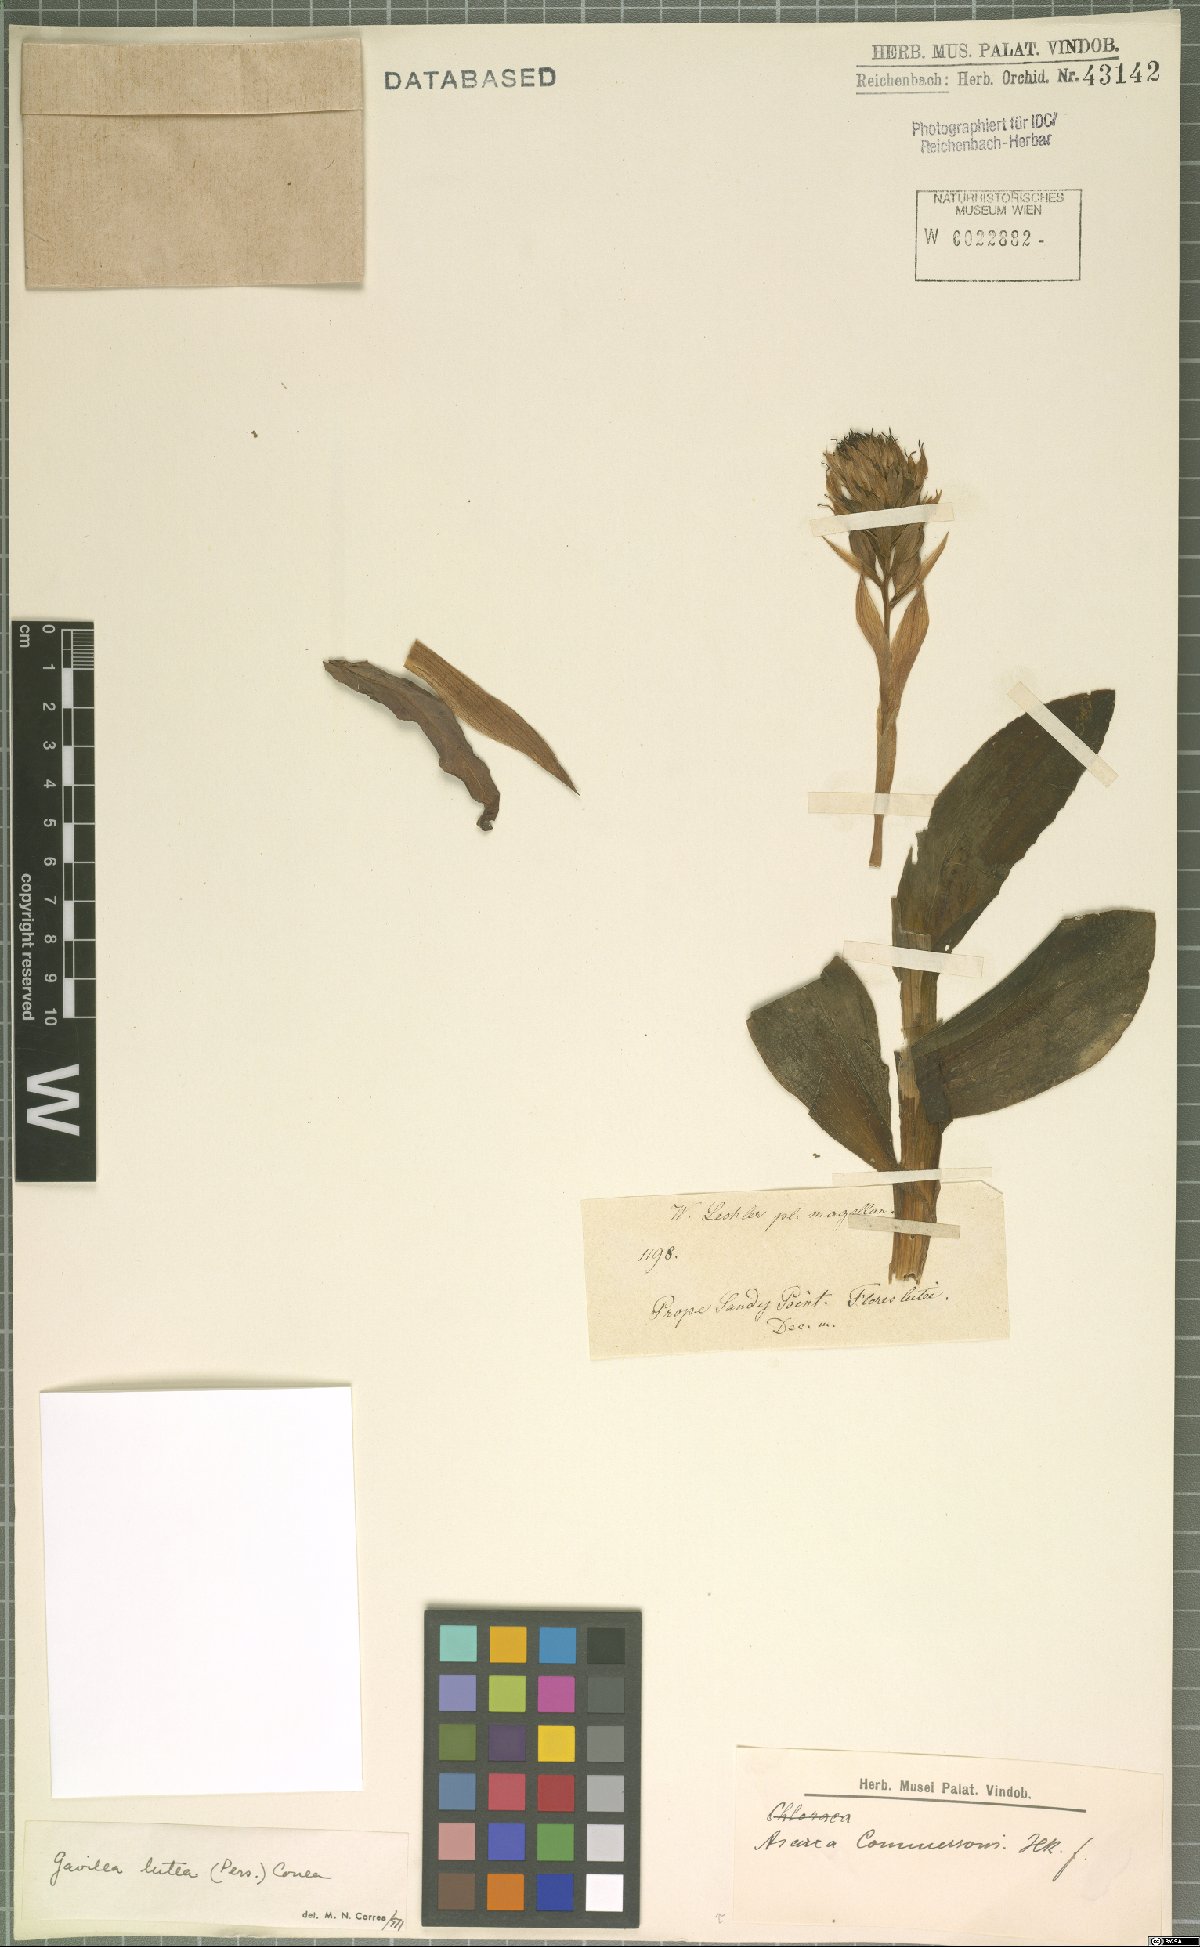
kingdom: Plantae
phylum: Tracheophyta
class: Liliopsida
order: Asparagales
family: Orchidaceae
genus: Gavilea
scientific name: Gavilea lutea
